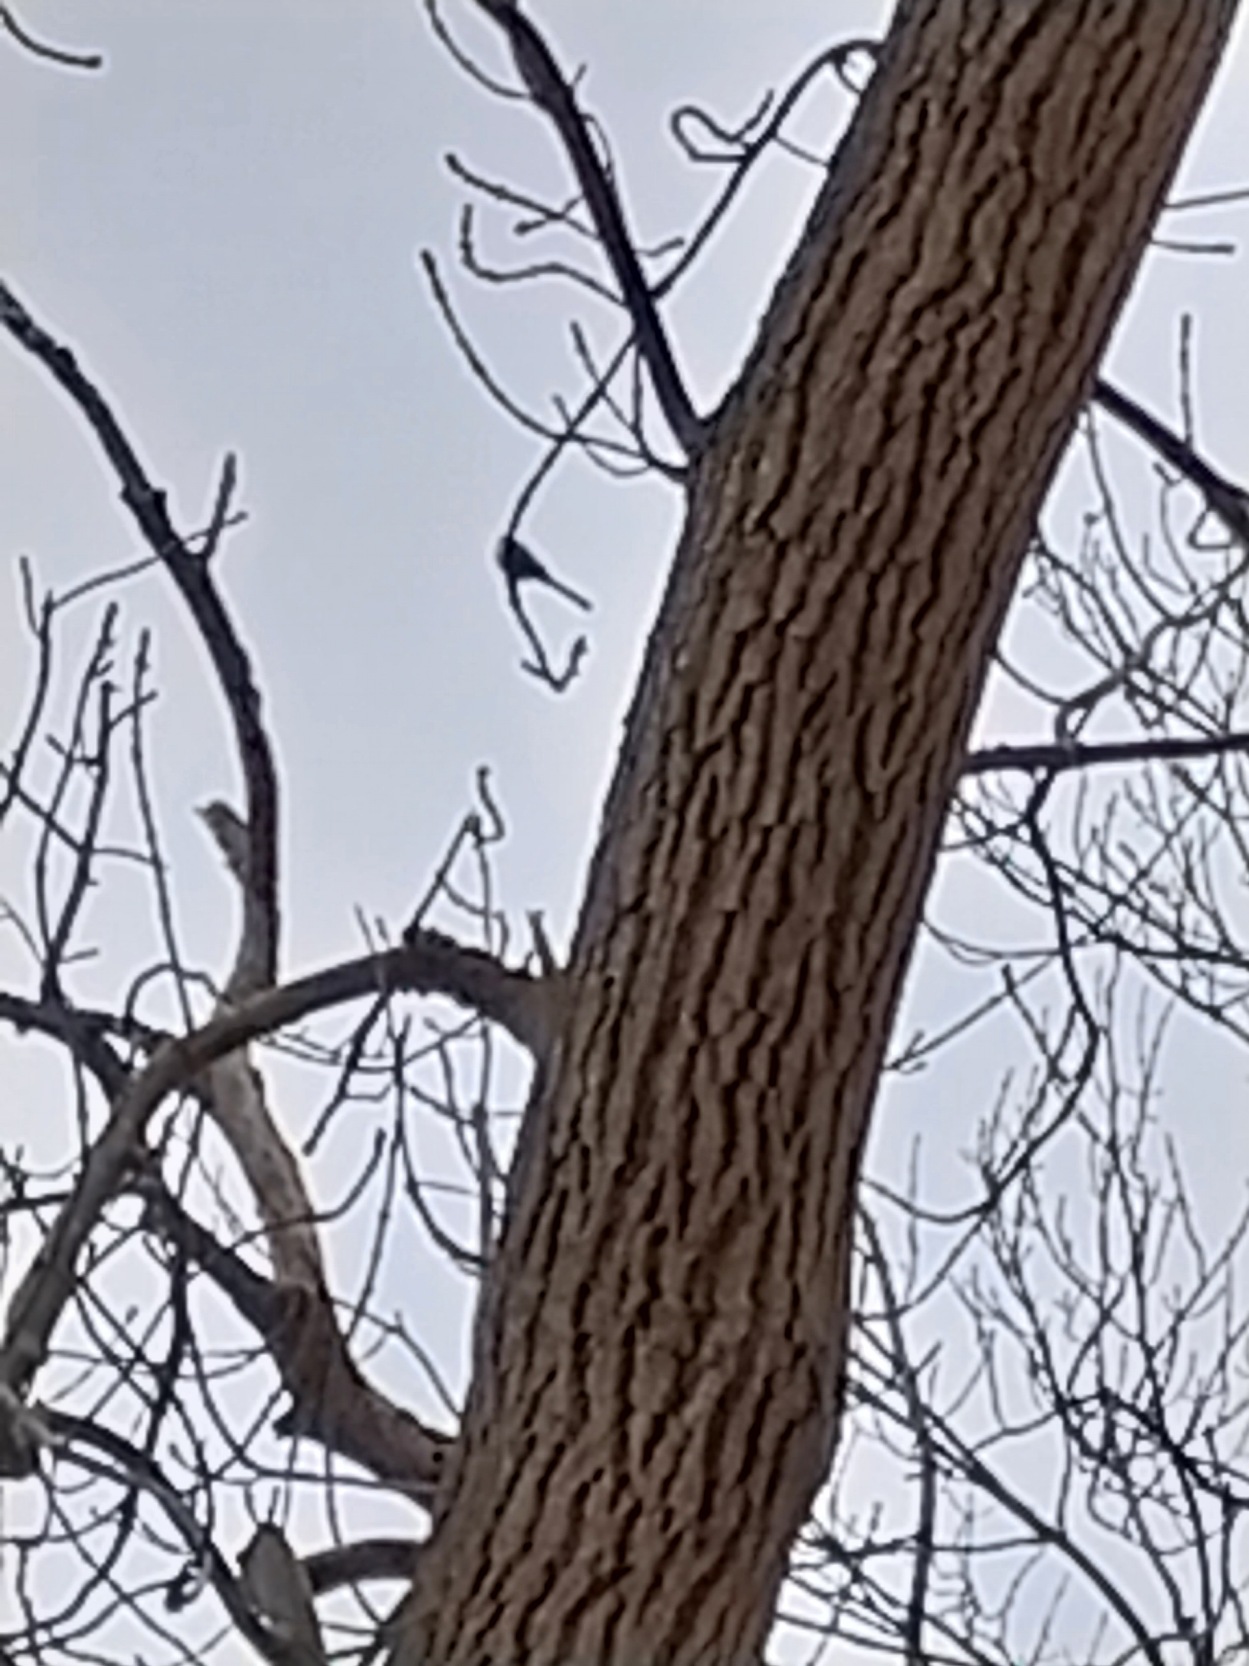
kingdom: Animalia
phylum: Chordata
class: Aves
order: Passeriformes
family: Aegithalidae
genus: Aegithalos
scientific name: Aegithalos caudatus
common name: Halemejse
